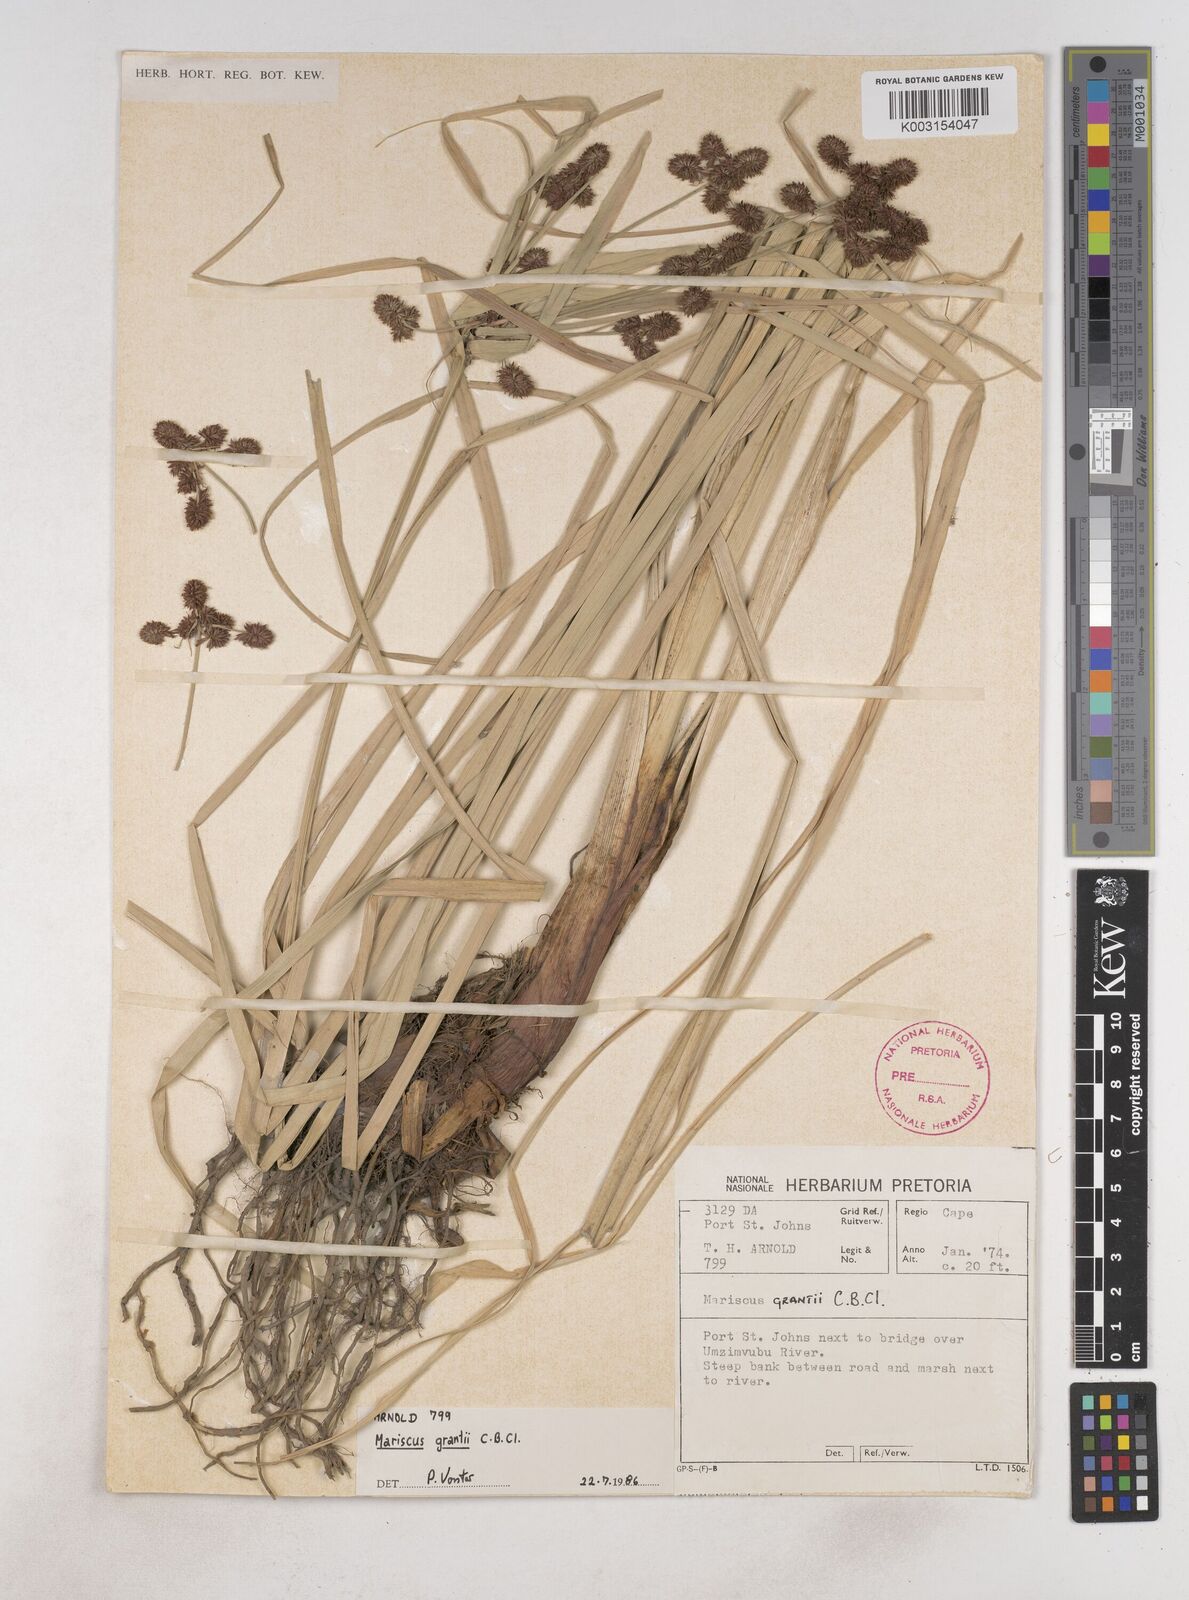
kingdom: Plantae
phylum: Tracheophyta
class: Liliopsida
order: Poales
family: Cyperaceae
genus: Cyperus
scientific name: Cyperus owanii
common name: Owan's flatsedge
